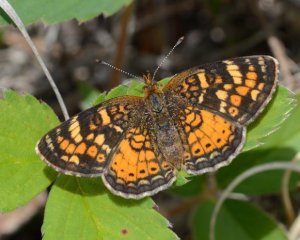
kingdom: Animalia
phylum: Arthropoda
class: Insecta
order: Lepidoptera
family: Nymphalidae
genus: Phyciodes
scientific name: Phyciodes tharos
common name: Northern Crescent
